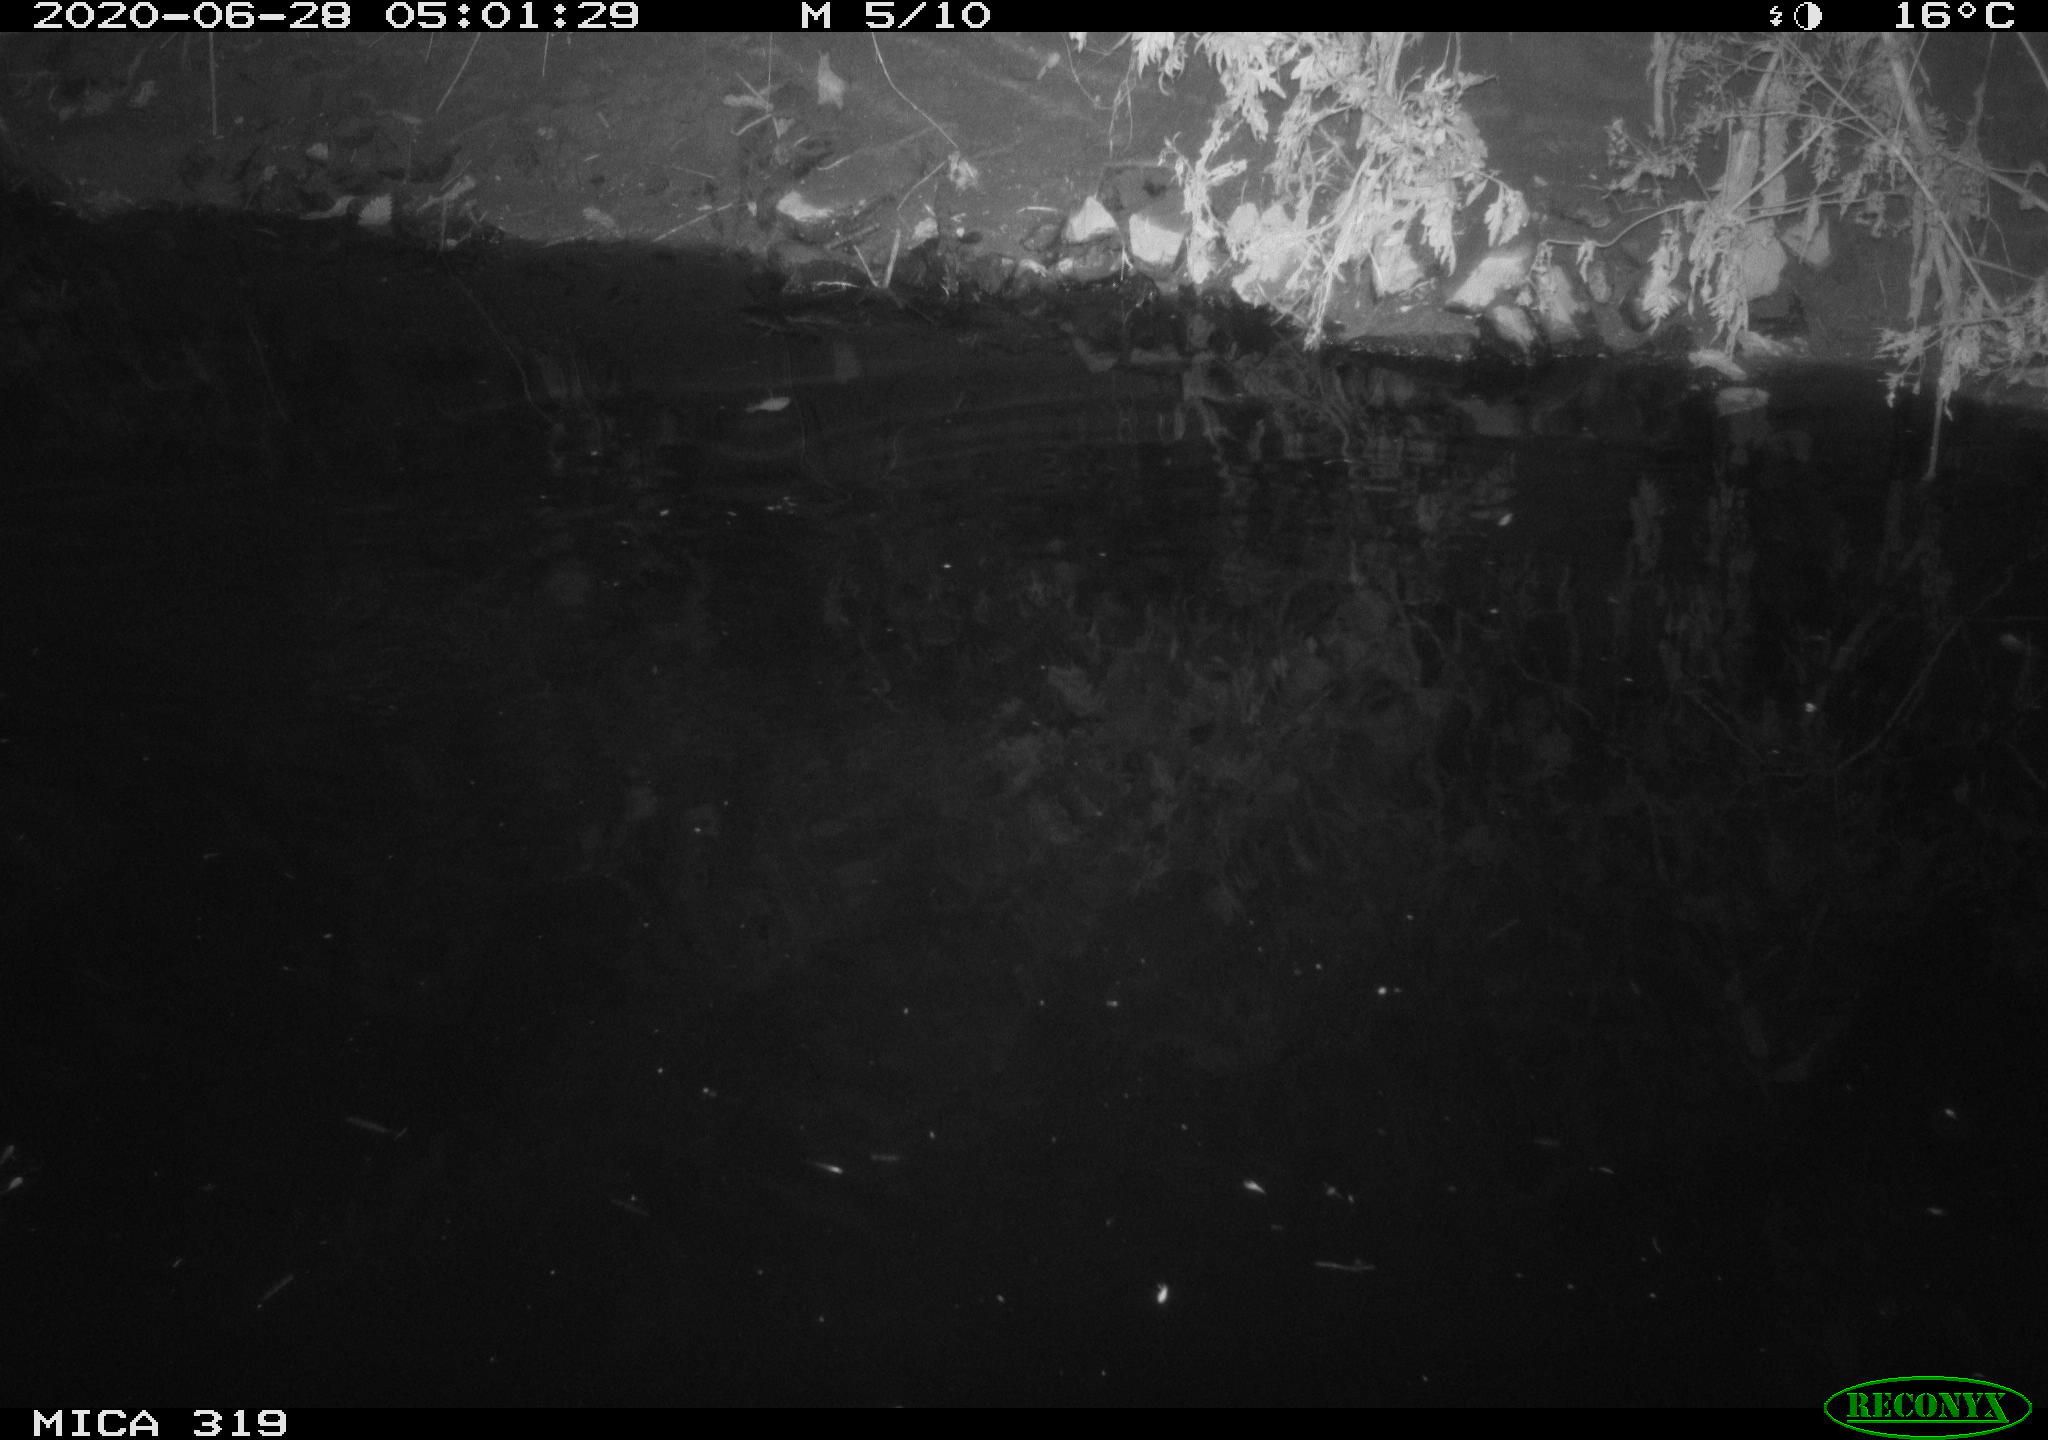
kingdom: Animalia
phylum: Chordata
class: Aves
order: Anseriformes
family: Anatidae
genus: Anas
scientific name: Anas platyrhynchos
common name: Mallard
